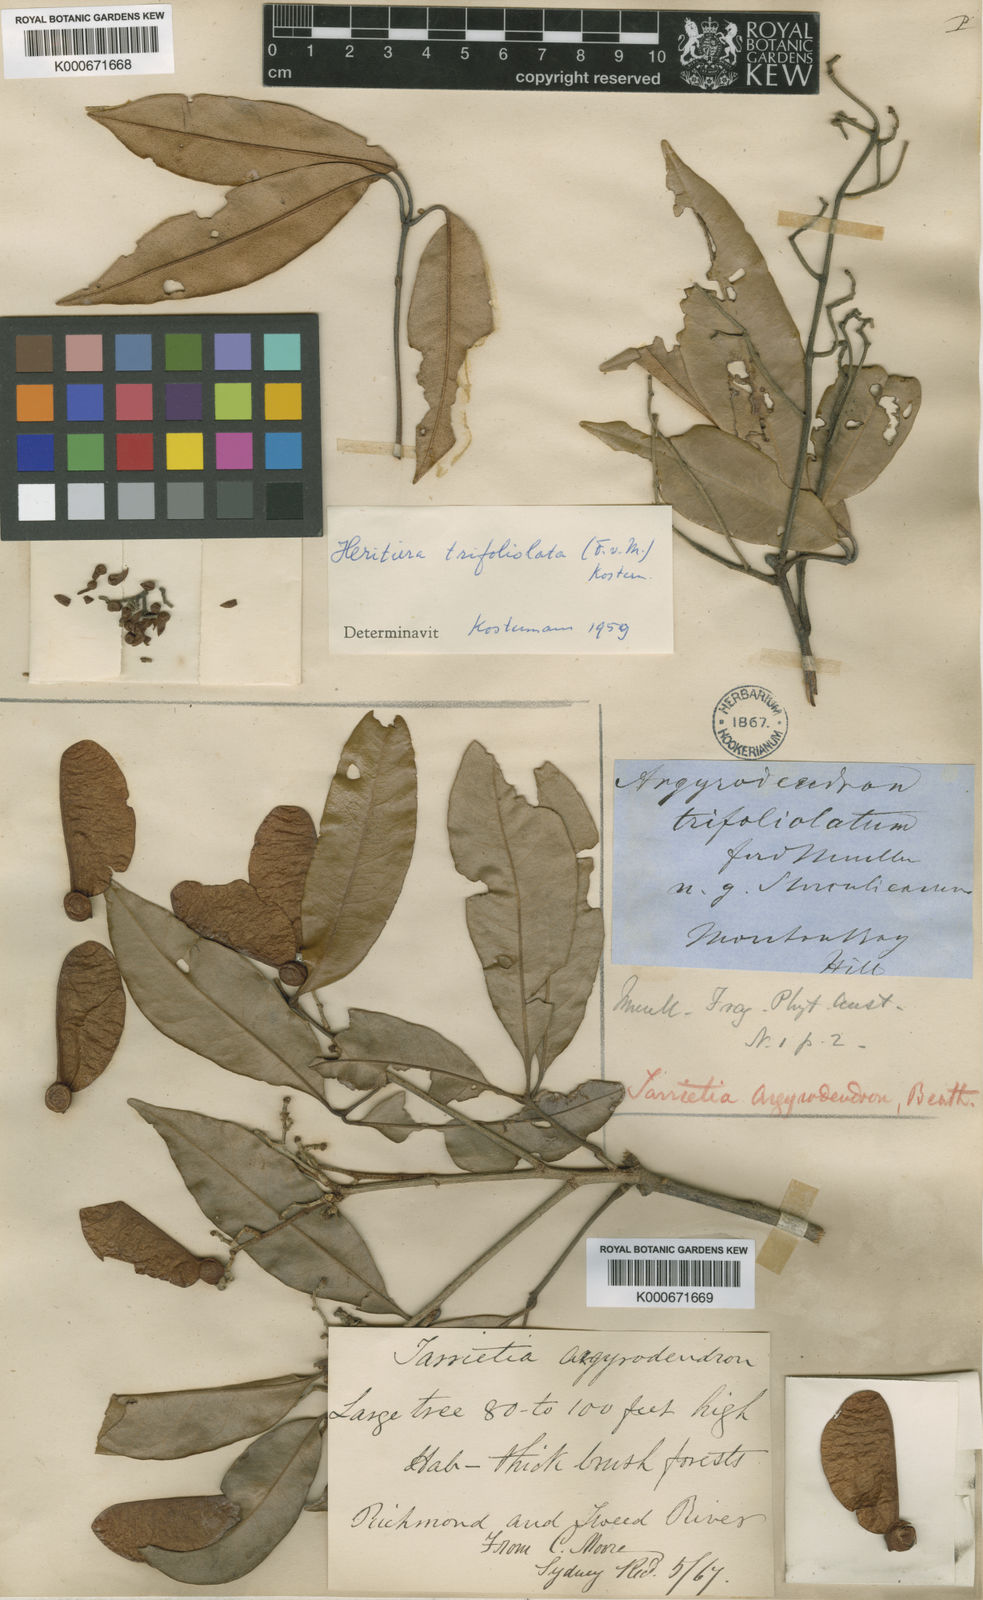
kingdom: Plantae
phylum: Tracheophyta
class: Magnoliopsida
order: Malvales
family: Malvaceae
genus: Argyrodendron
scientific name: Argyrodendron trifoliolatum
